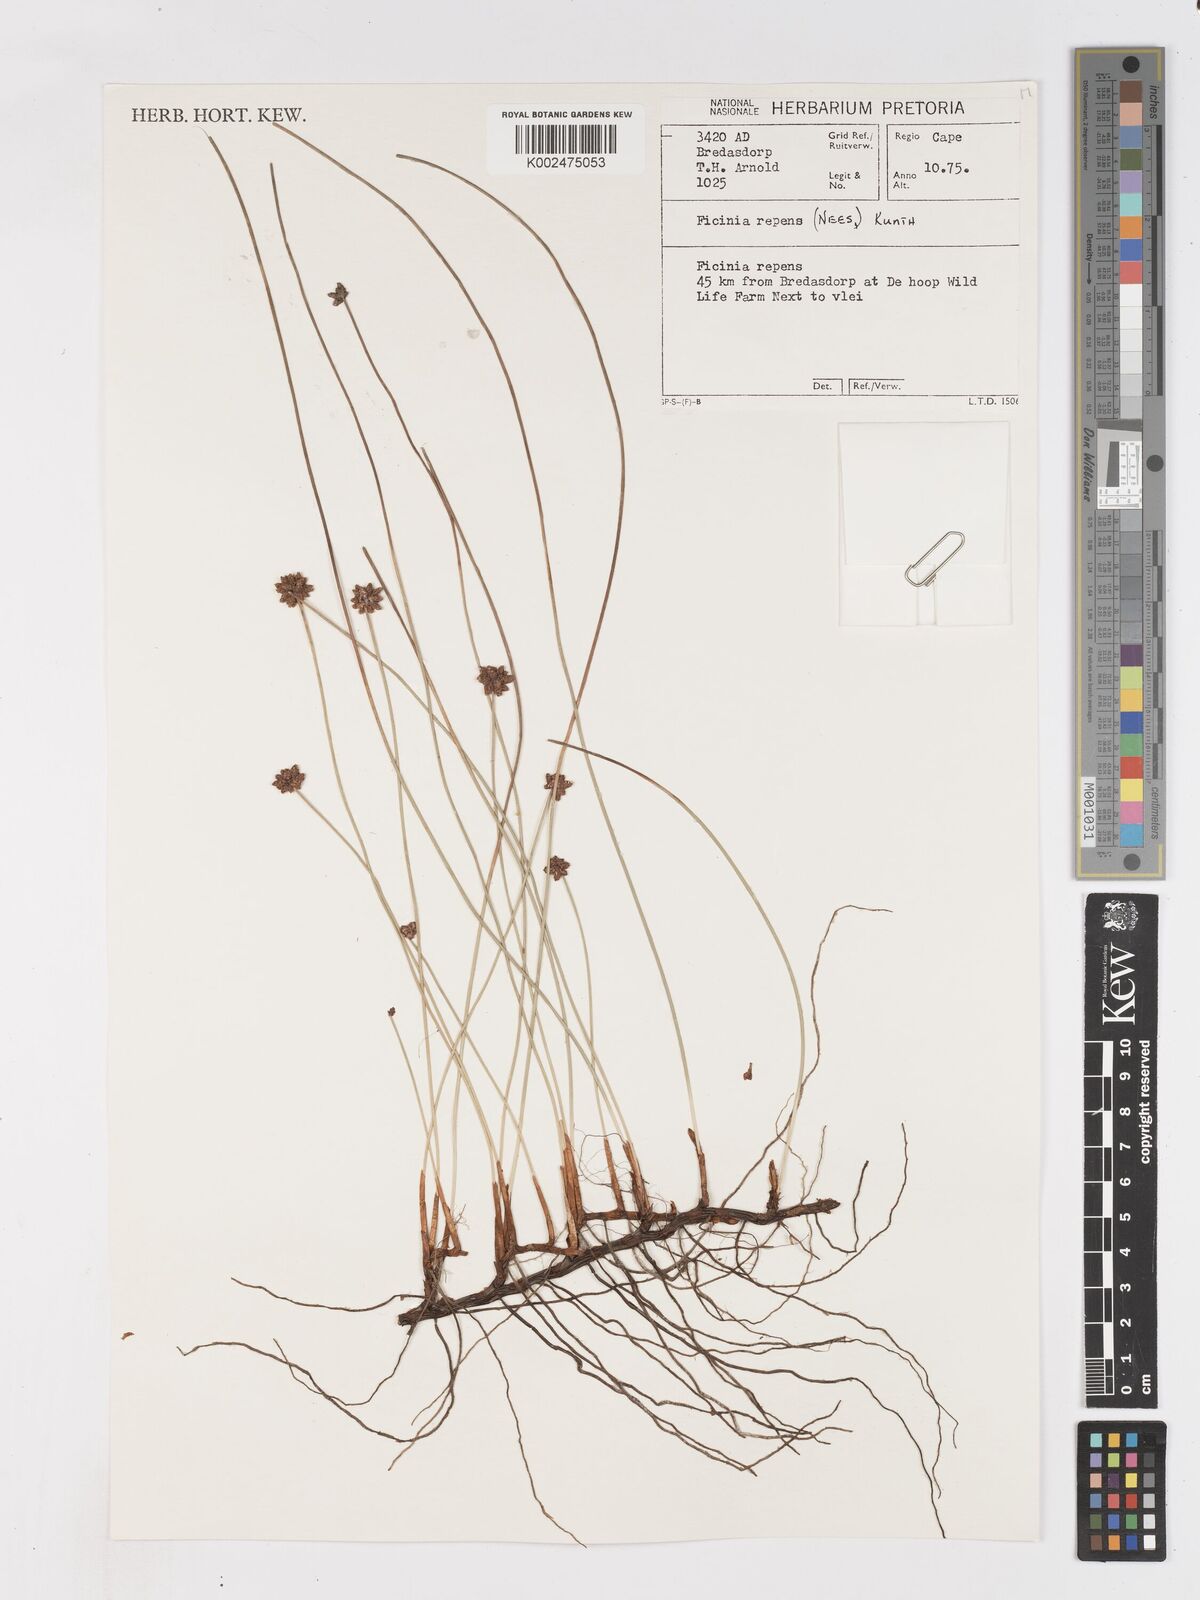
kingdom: Plantae
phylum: Tracheophyta
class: Liliopsida
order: Poales
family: Cyperaceae
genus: Ficinia
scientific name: Ficinia repens
